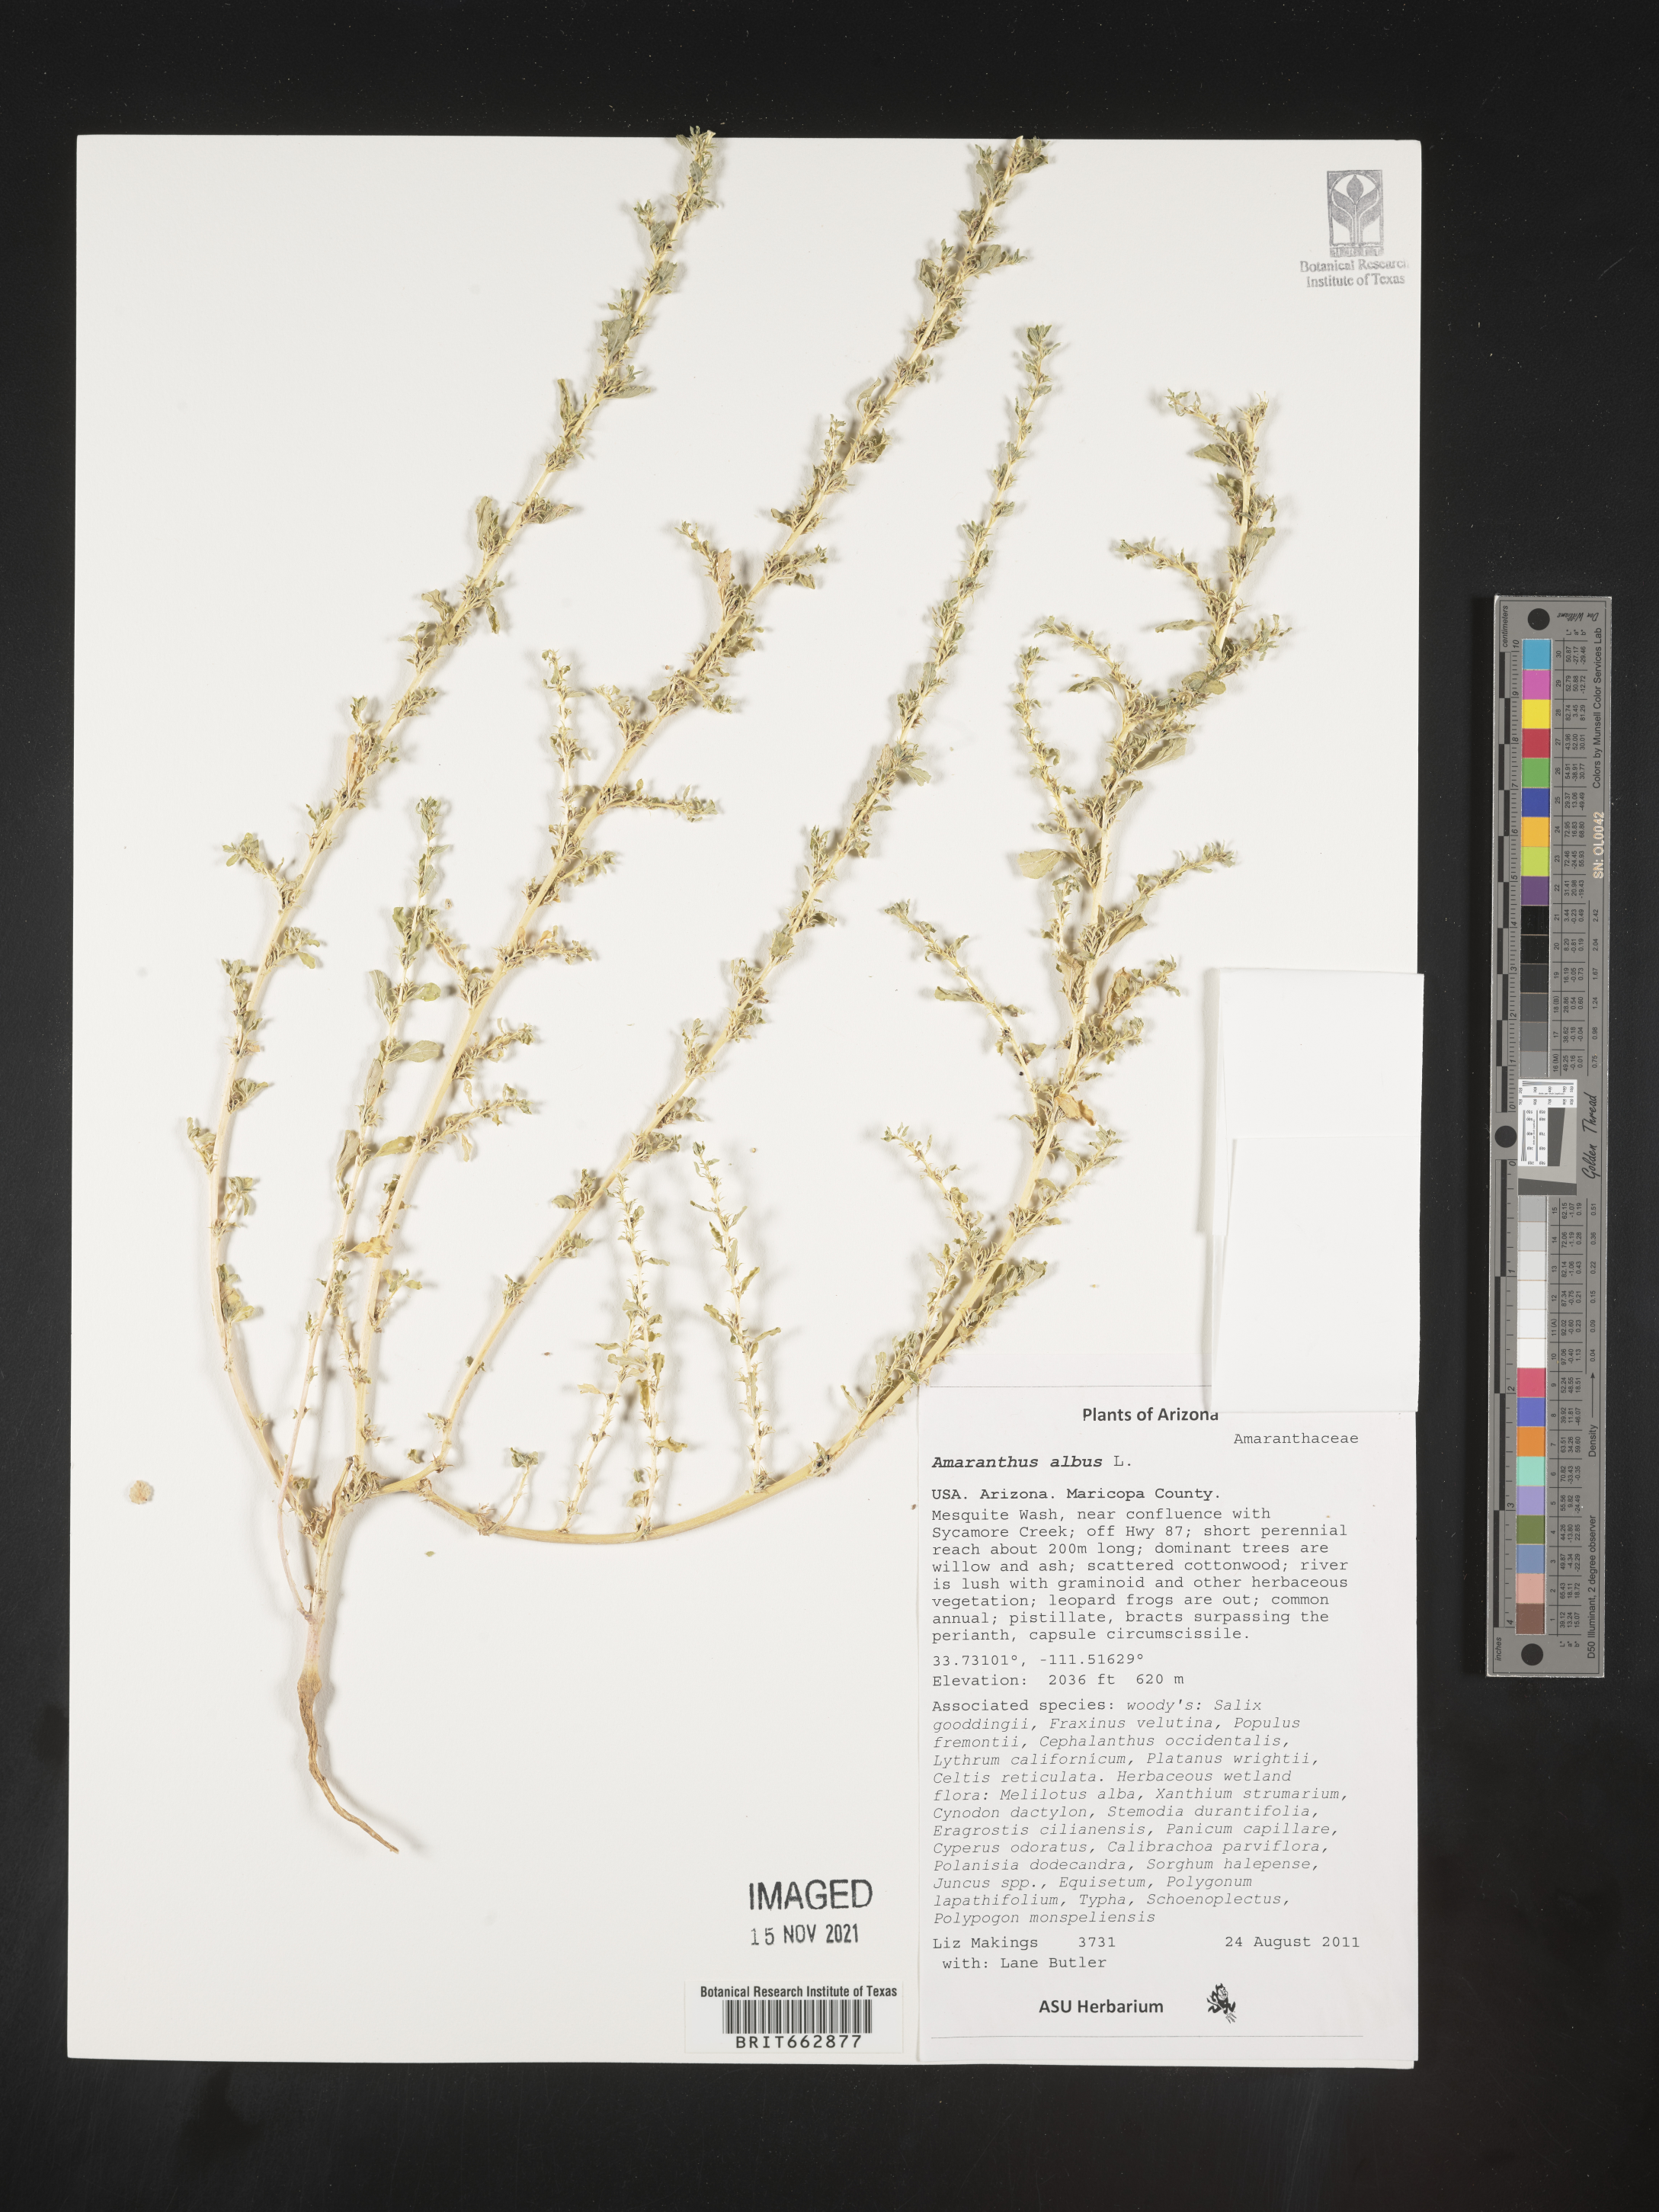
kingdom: Plantae
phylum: Tracheophyta
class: Magnoliopsida
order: Caryophyllales
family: Amaranthaceae
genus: Amaranthus
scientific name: Amaranthus albus
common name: White pigweed
